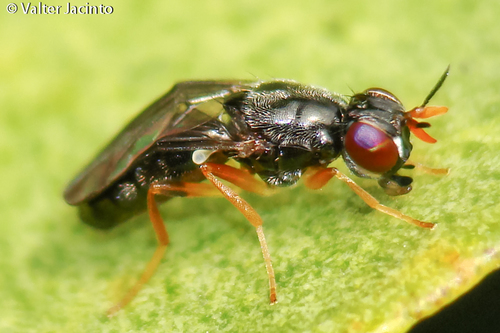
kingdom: Animalia
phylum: Arthropoda
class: Insecta
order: Diptera
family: Psilidae
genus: Chyliza
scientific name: Chyliza extenuata
